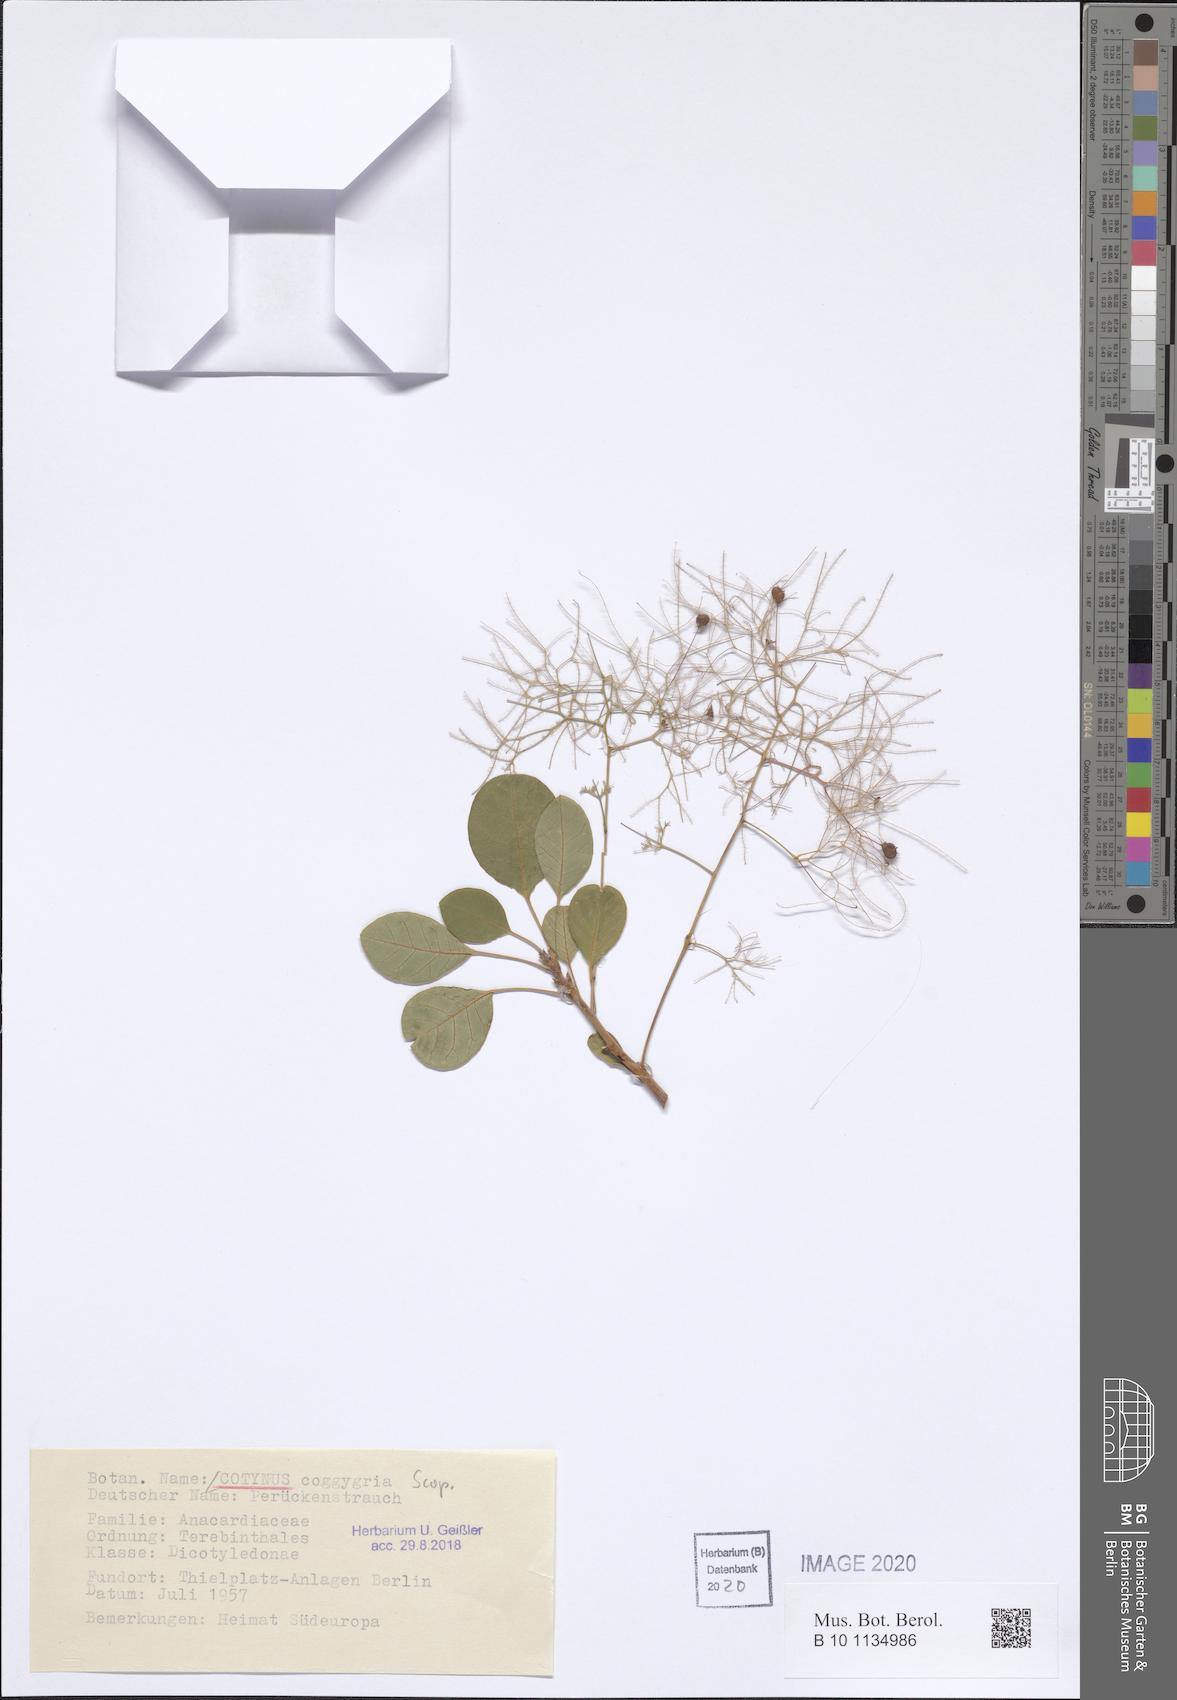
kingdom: Plantae
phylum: Tracheophyta
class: Magnoliopsida
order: Sapindales
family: Anacardiaceae
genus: Cotinus
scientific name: Cotinus coggygria
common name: Smoke-tree
